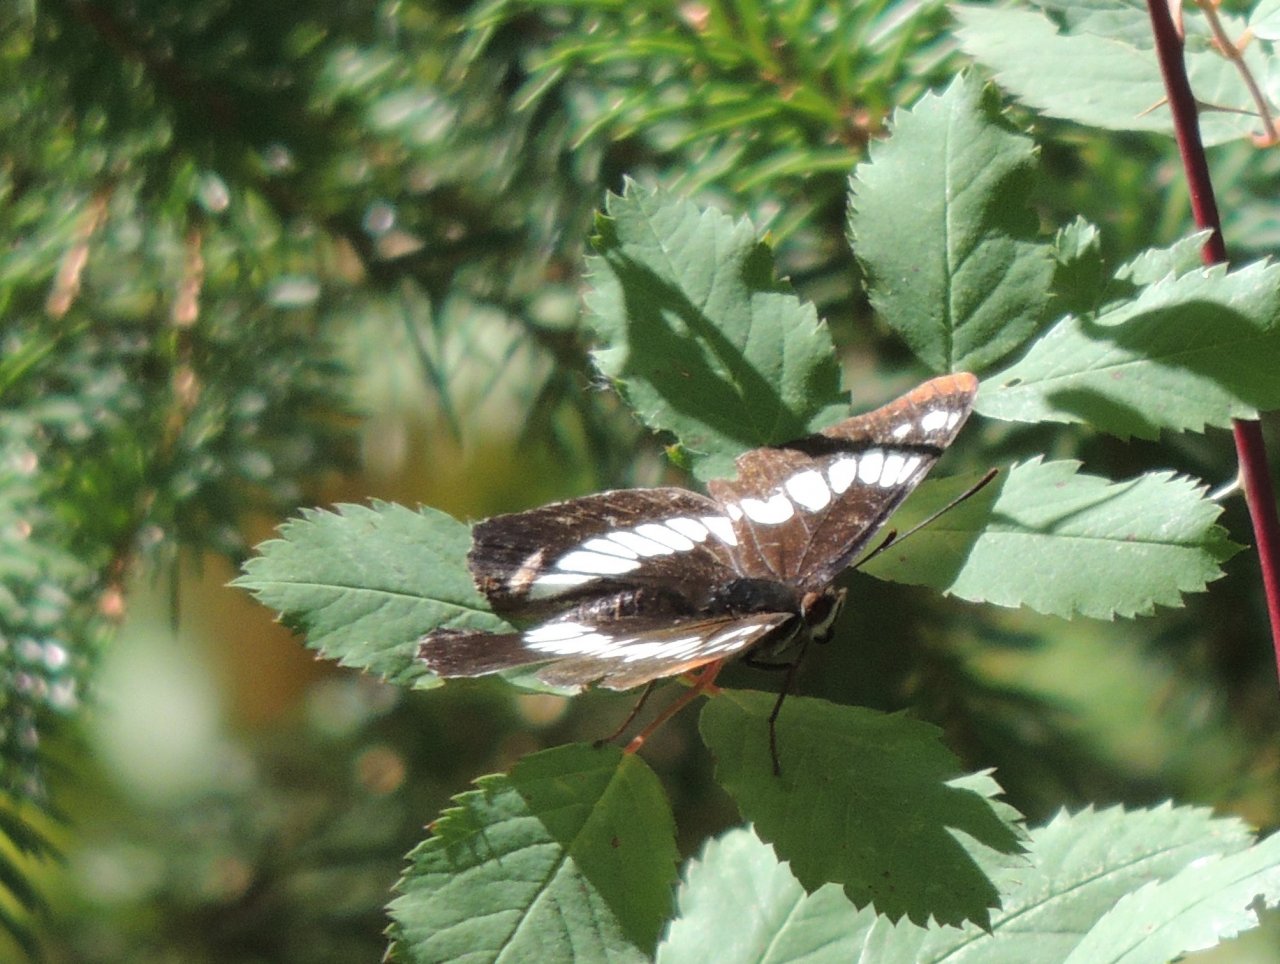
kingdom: Animalia
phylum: Arthropoda
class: Insecta
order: Lepidoptera
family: Nymphalidae
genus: Limenitis
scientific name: Limenitis lorquini
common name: Lorquin's Admiral
